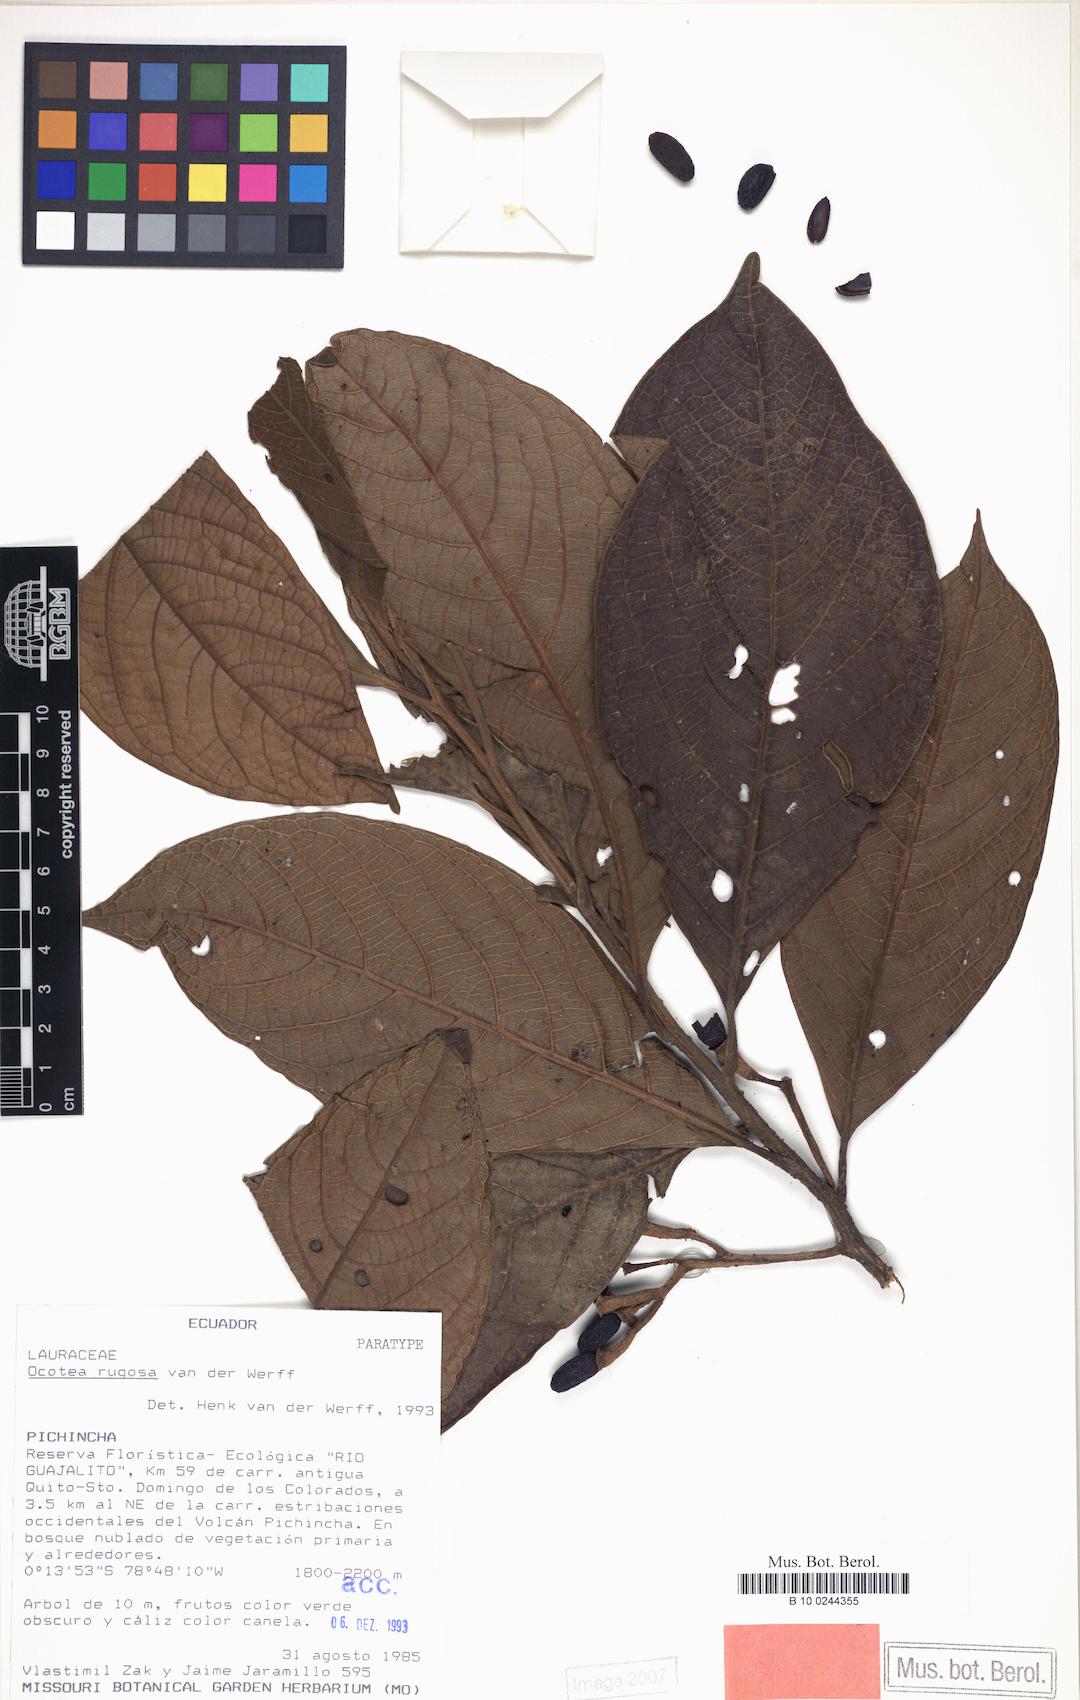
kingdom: Plantae
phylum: Tracheophyta
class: Magnoliopsida
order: Laurales
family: Lauraceae
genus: Ocotea
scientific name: Ocotea rugosa
